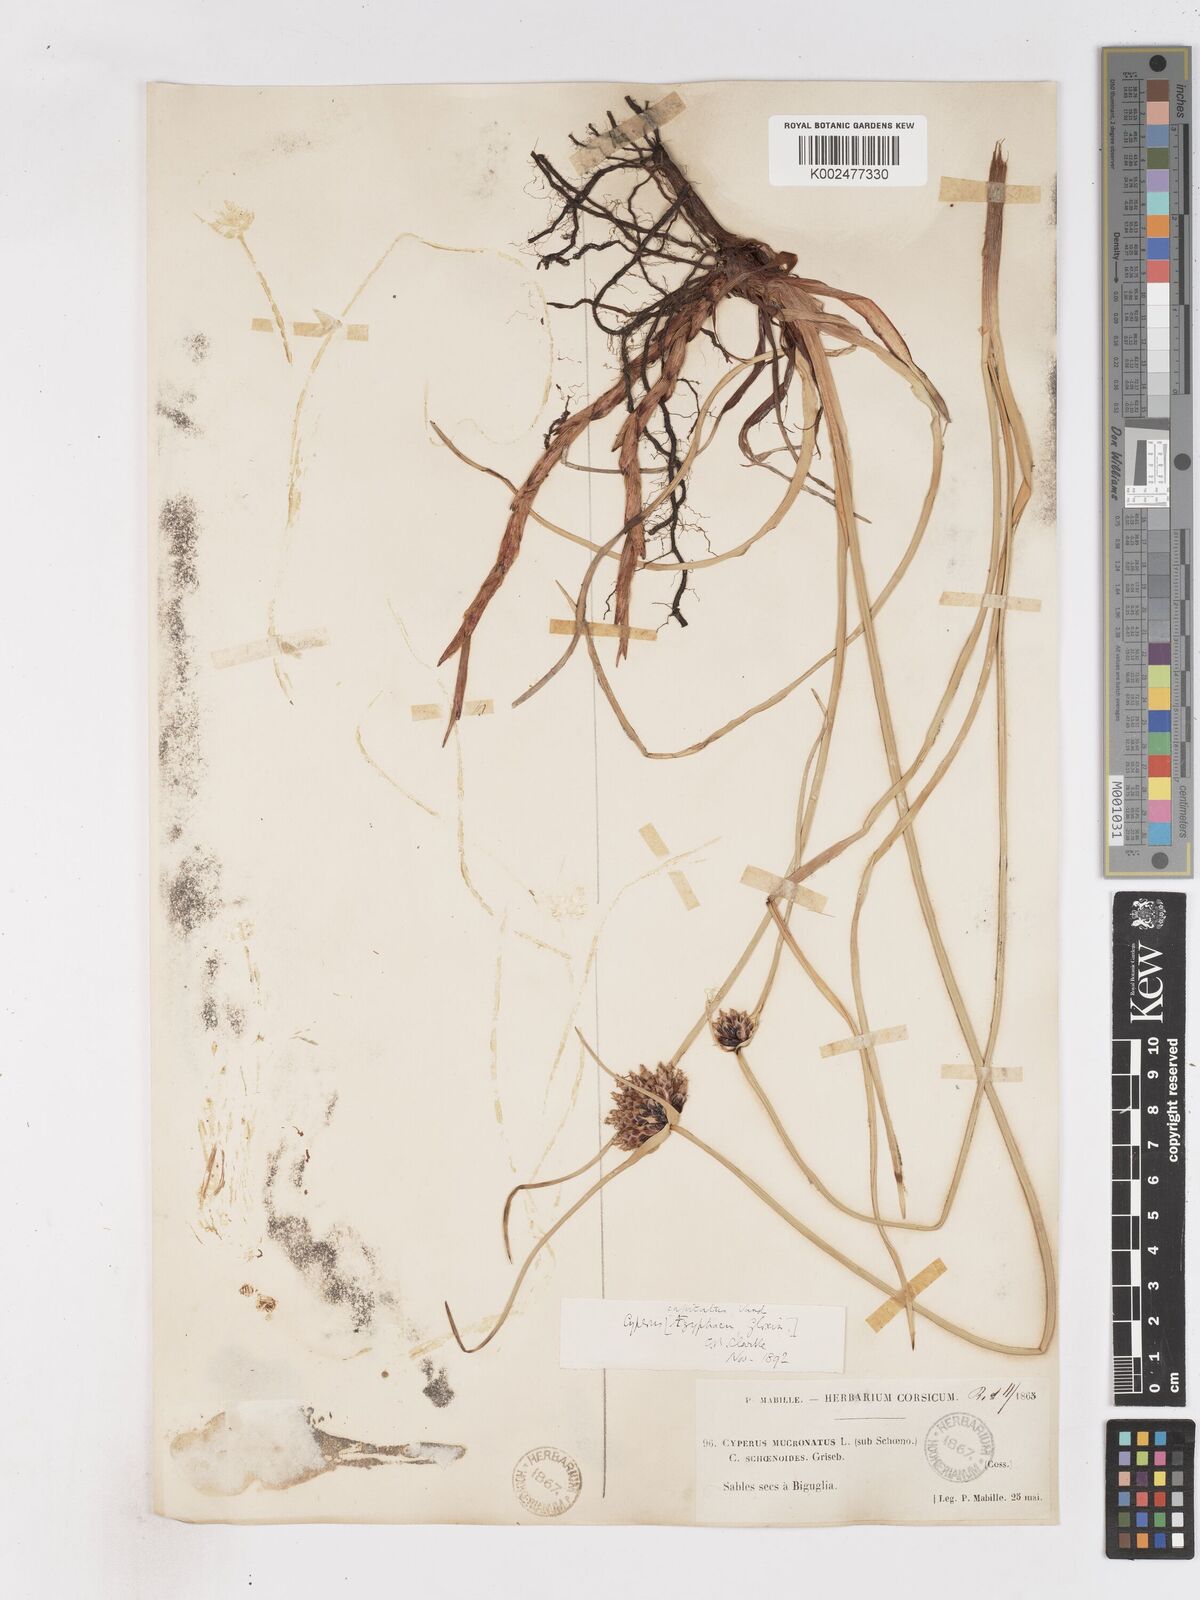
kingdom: Plantae
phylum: Tracheophyta
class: Liliopsida
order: Poales
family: Cyperaceae
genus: Cyperus
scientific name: Cyperus capitatus
